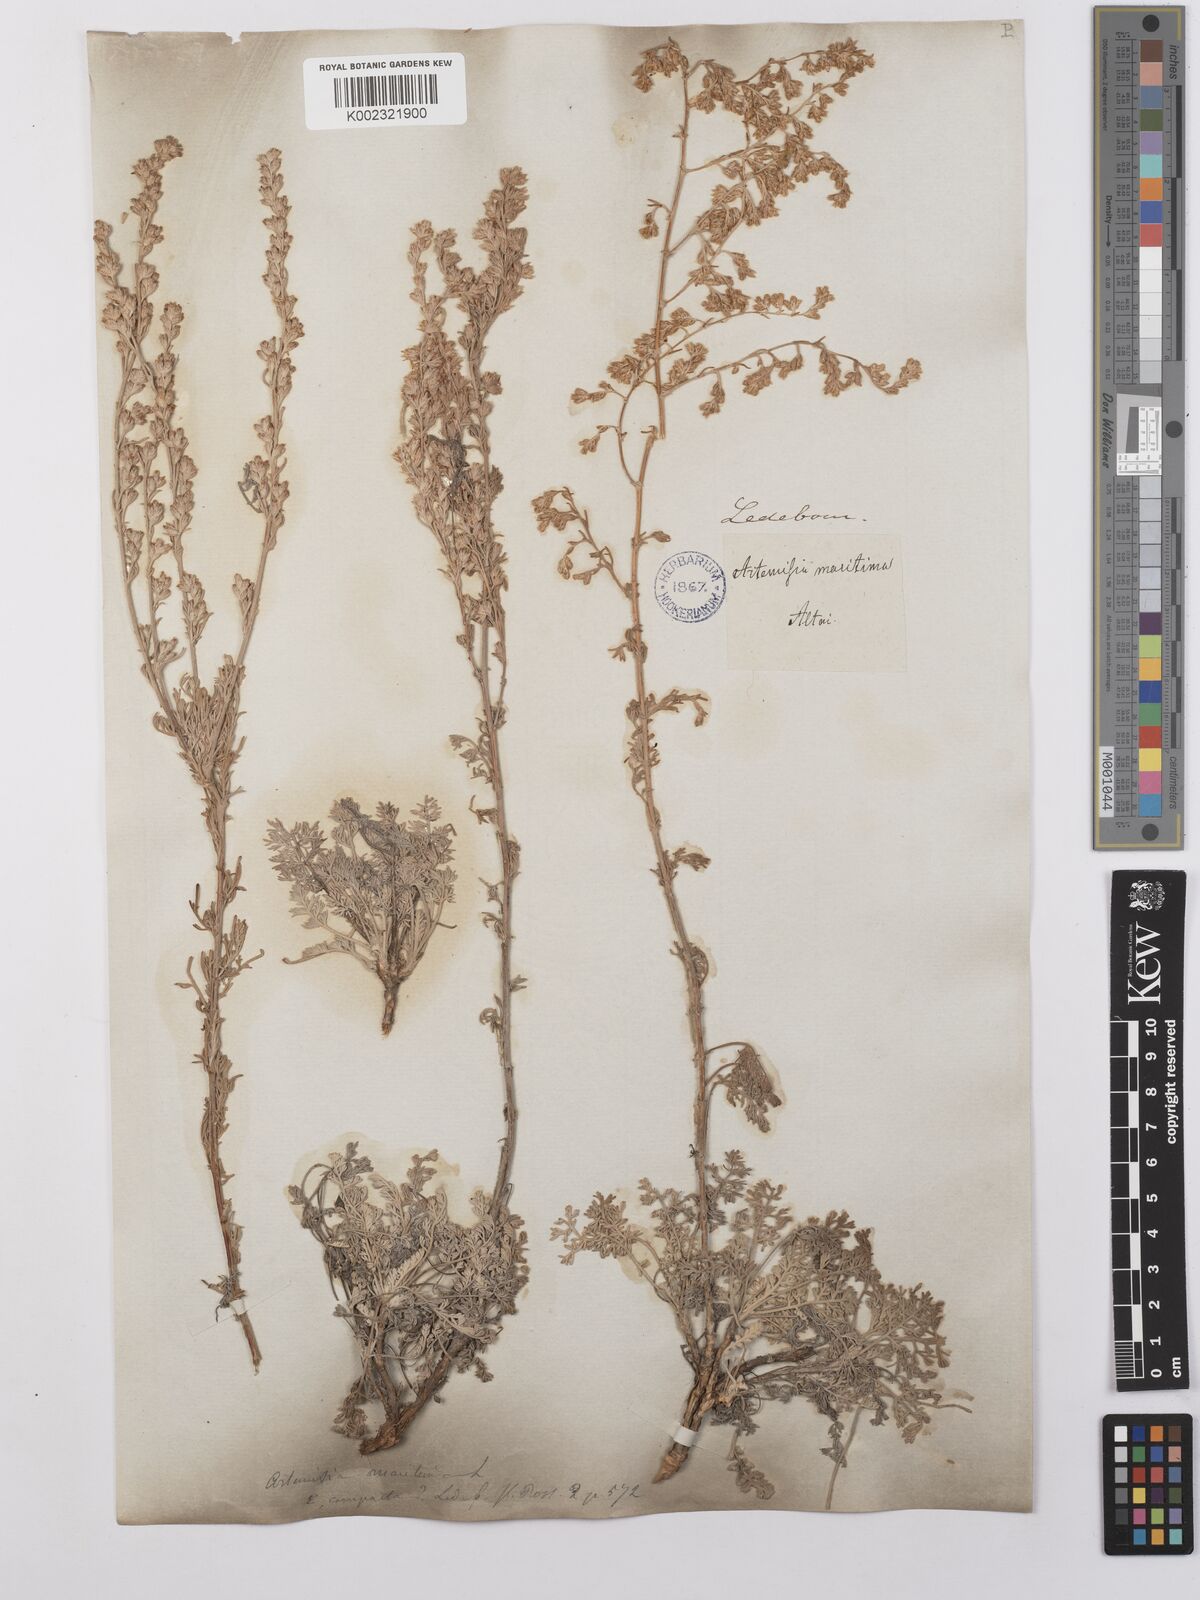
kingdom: Plantae
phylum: Tracheophyta
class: Magnoliopsida
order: Asterales
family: Asteraceae
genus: Artemisia
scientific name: Artemisia compacta
